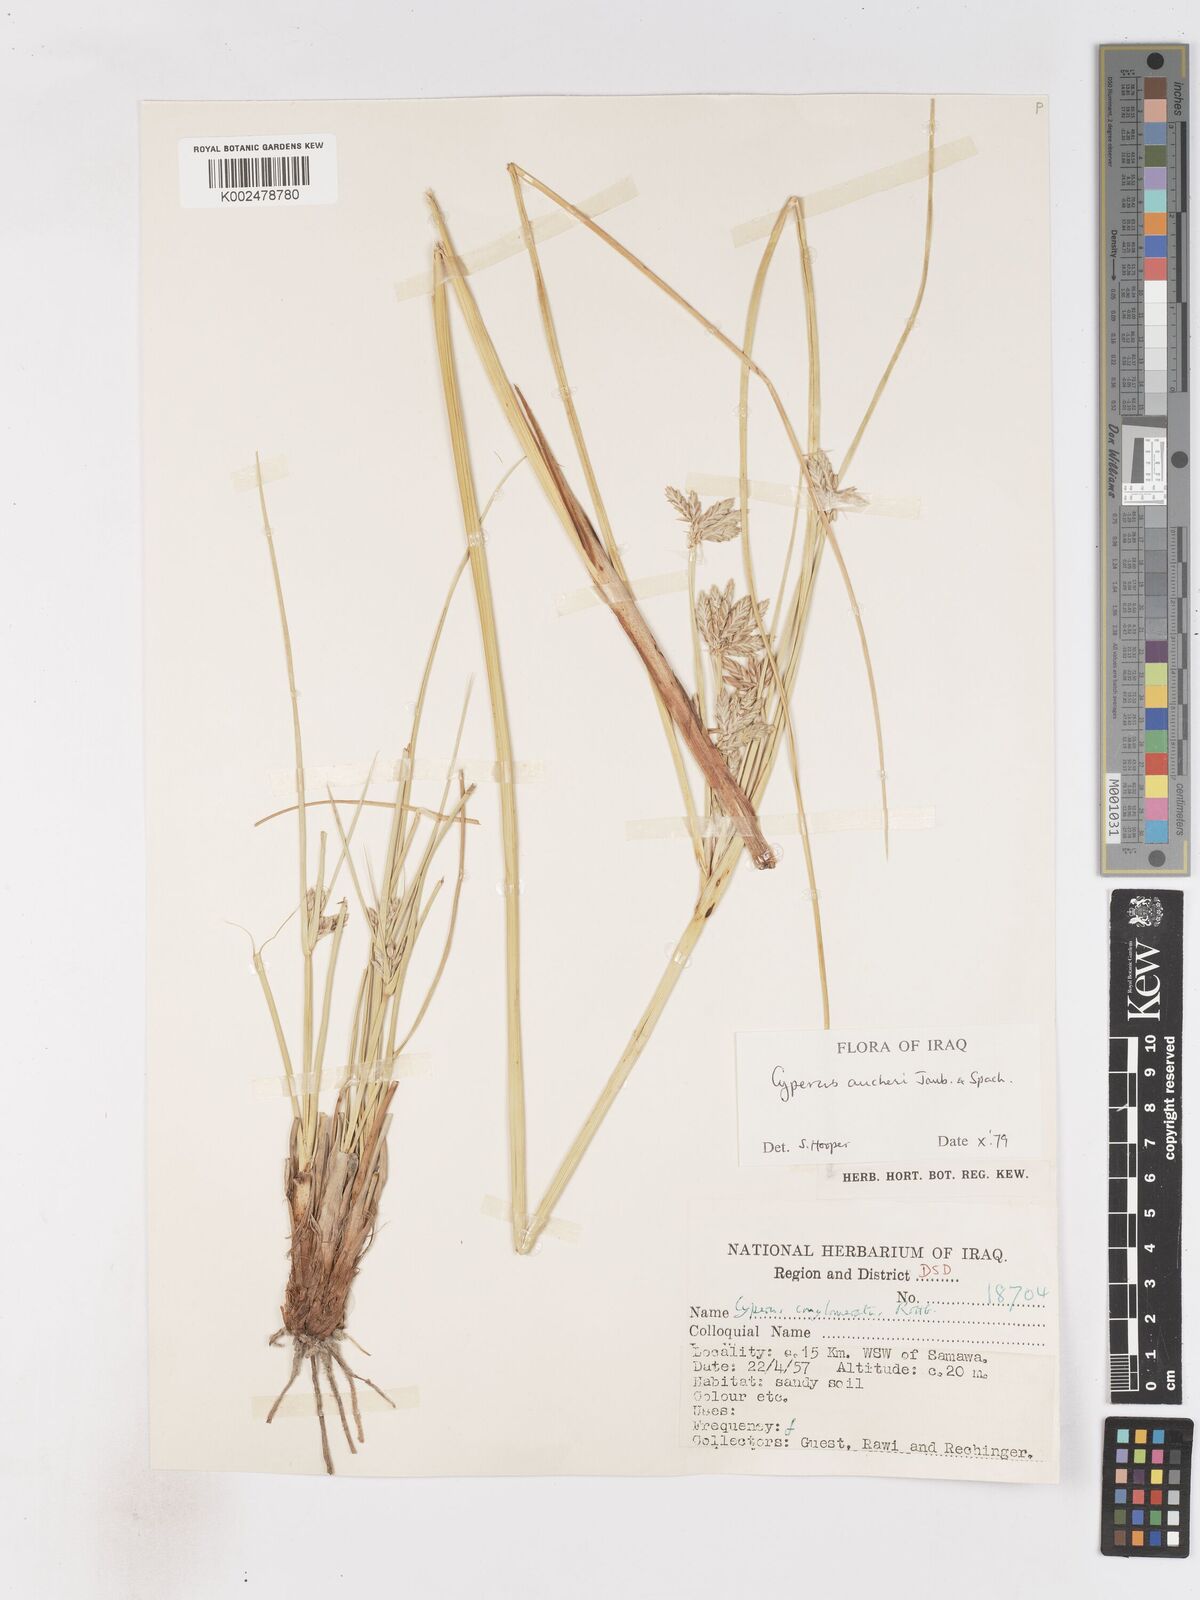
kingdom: Plantae
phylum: Tracheophyta
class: Liliopsida
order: Poales
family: Cyperaceae
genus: Cyperus
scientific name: Cyperus aucheri
